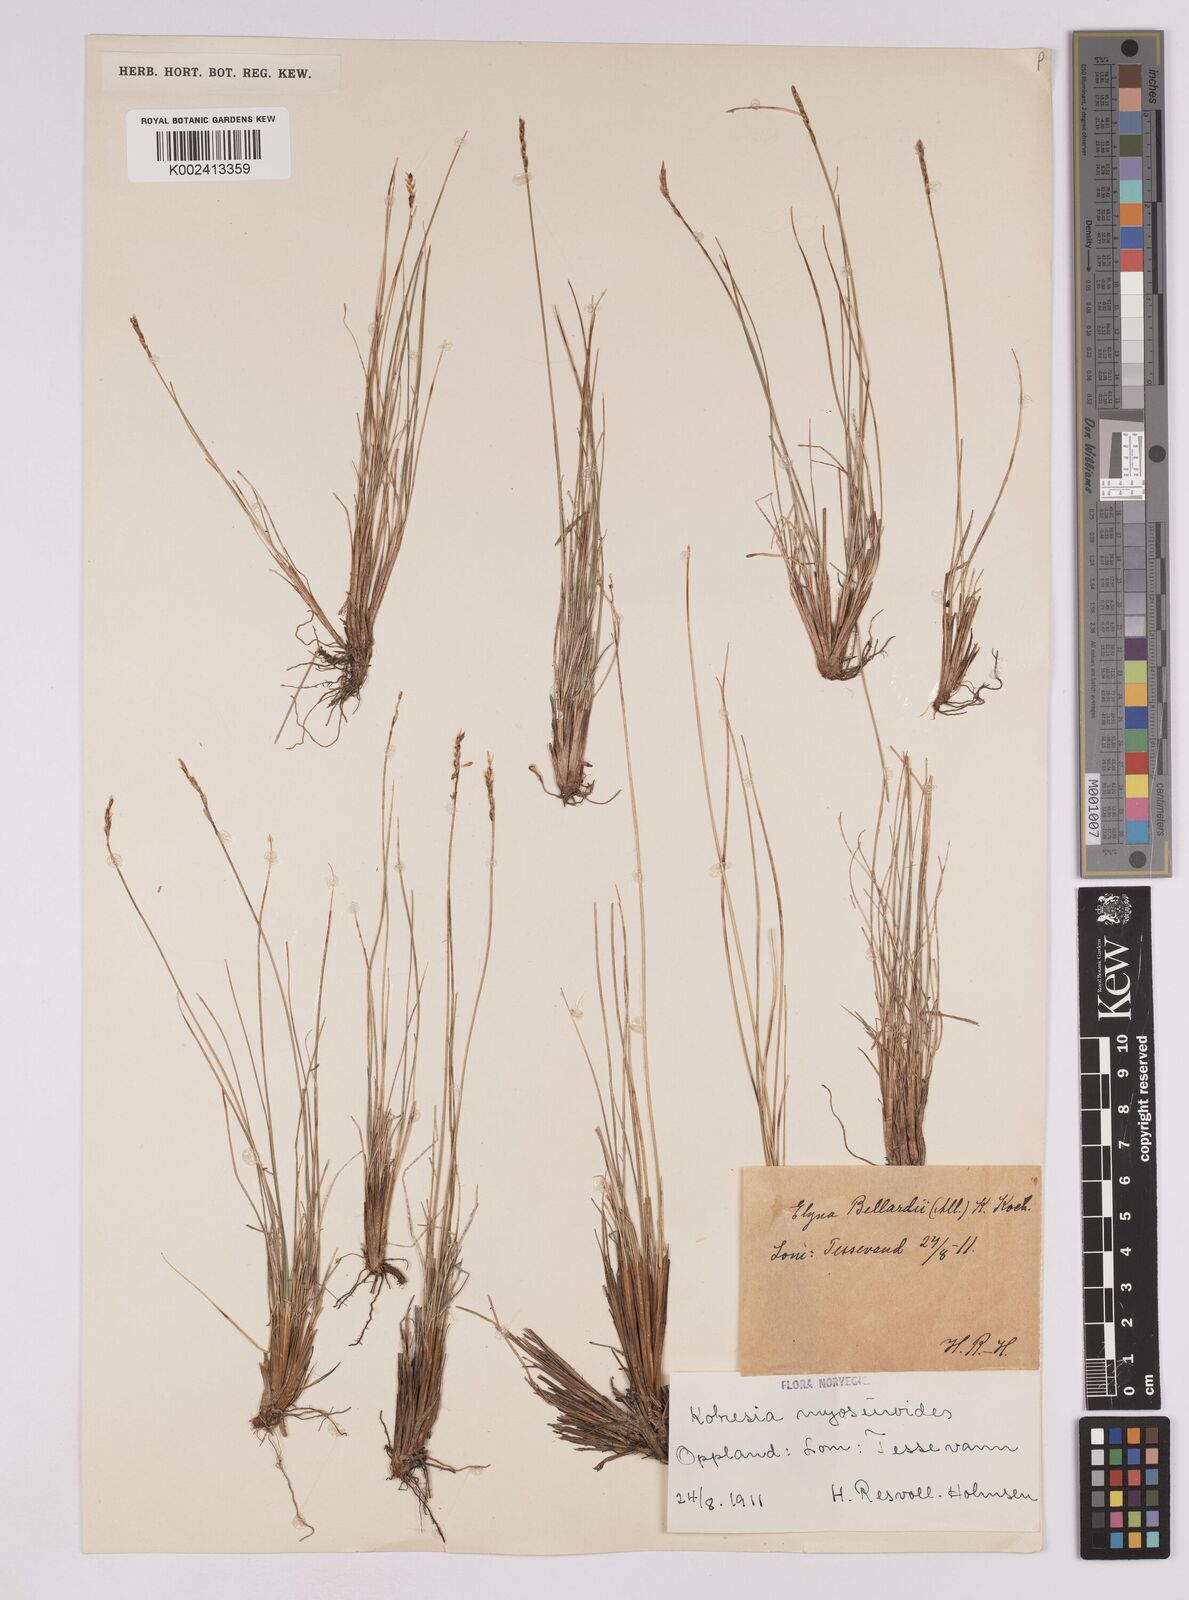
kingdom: Plantae
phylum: Tracheophyta
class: Liliopsida
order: Poales
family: Cyperaceae
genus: Carex
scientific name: Carex myosuroides
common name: Bellard's bog sedge
